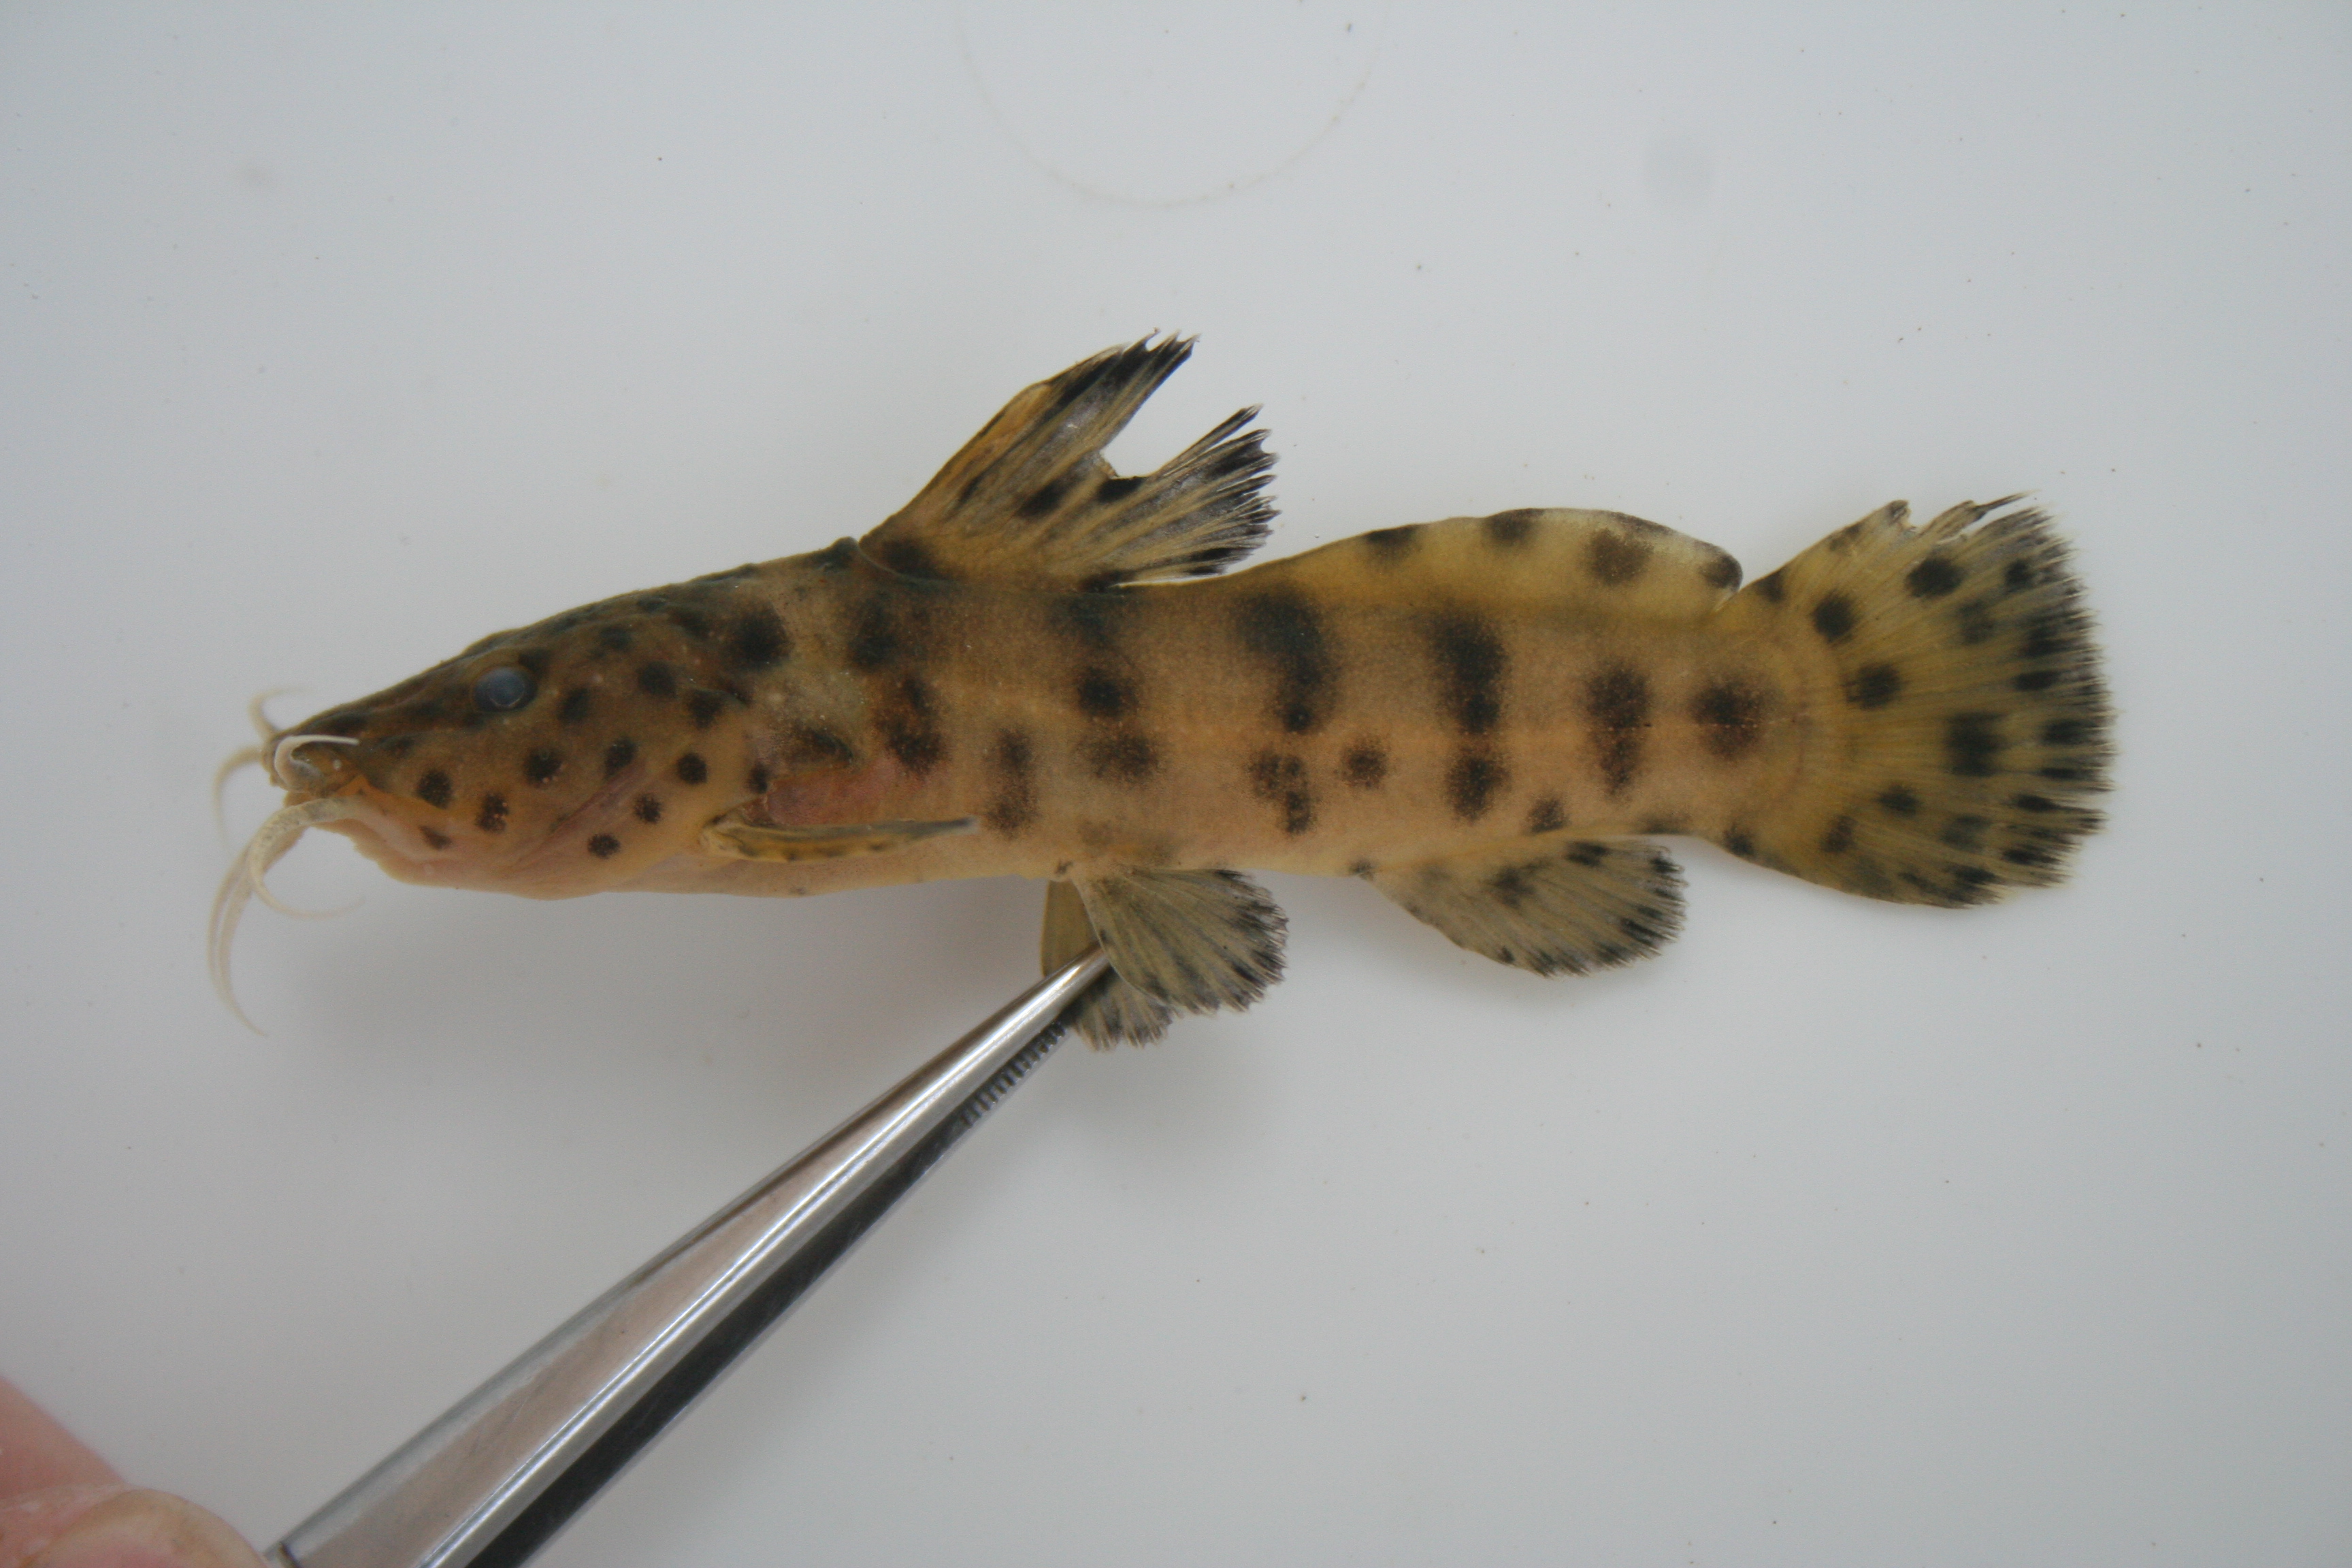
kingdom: Animalia
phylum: Chordata
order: Siluriformes
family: Claroteidae
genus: Parauchenoglanis
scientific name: Parauchenoglanis
